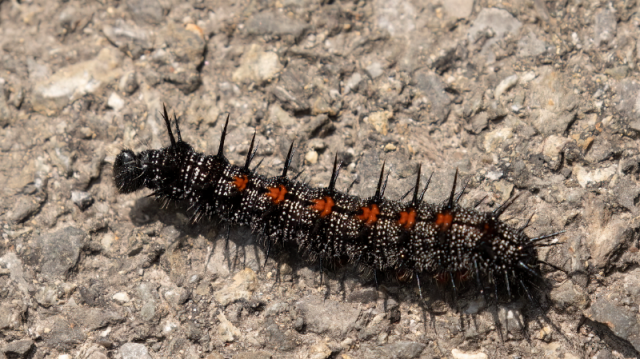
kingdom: Animalia
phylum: Arthropoda
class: Insecta
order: Lepidoptera
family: Nymphalidae
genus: Nymphalis
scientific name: Nymphalis antiopa
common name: Mourning Cloak
